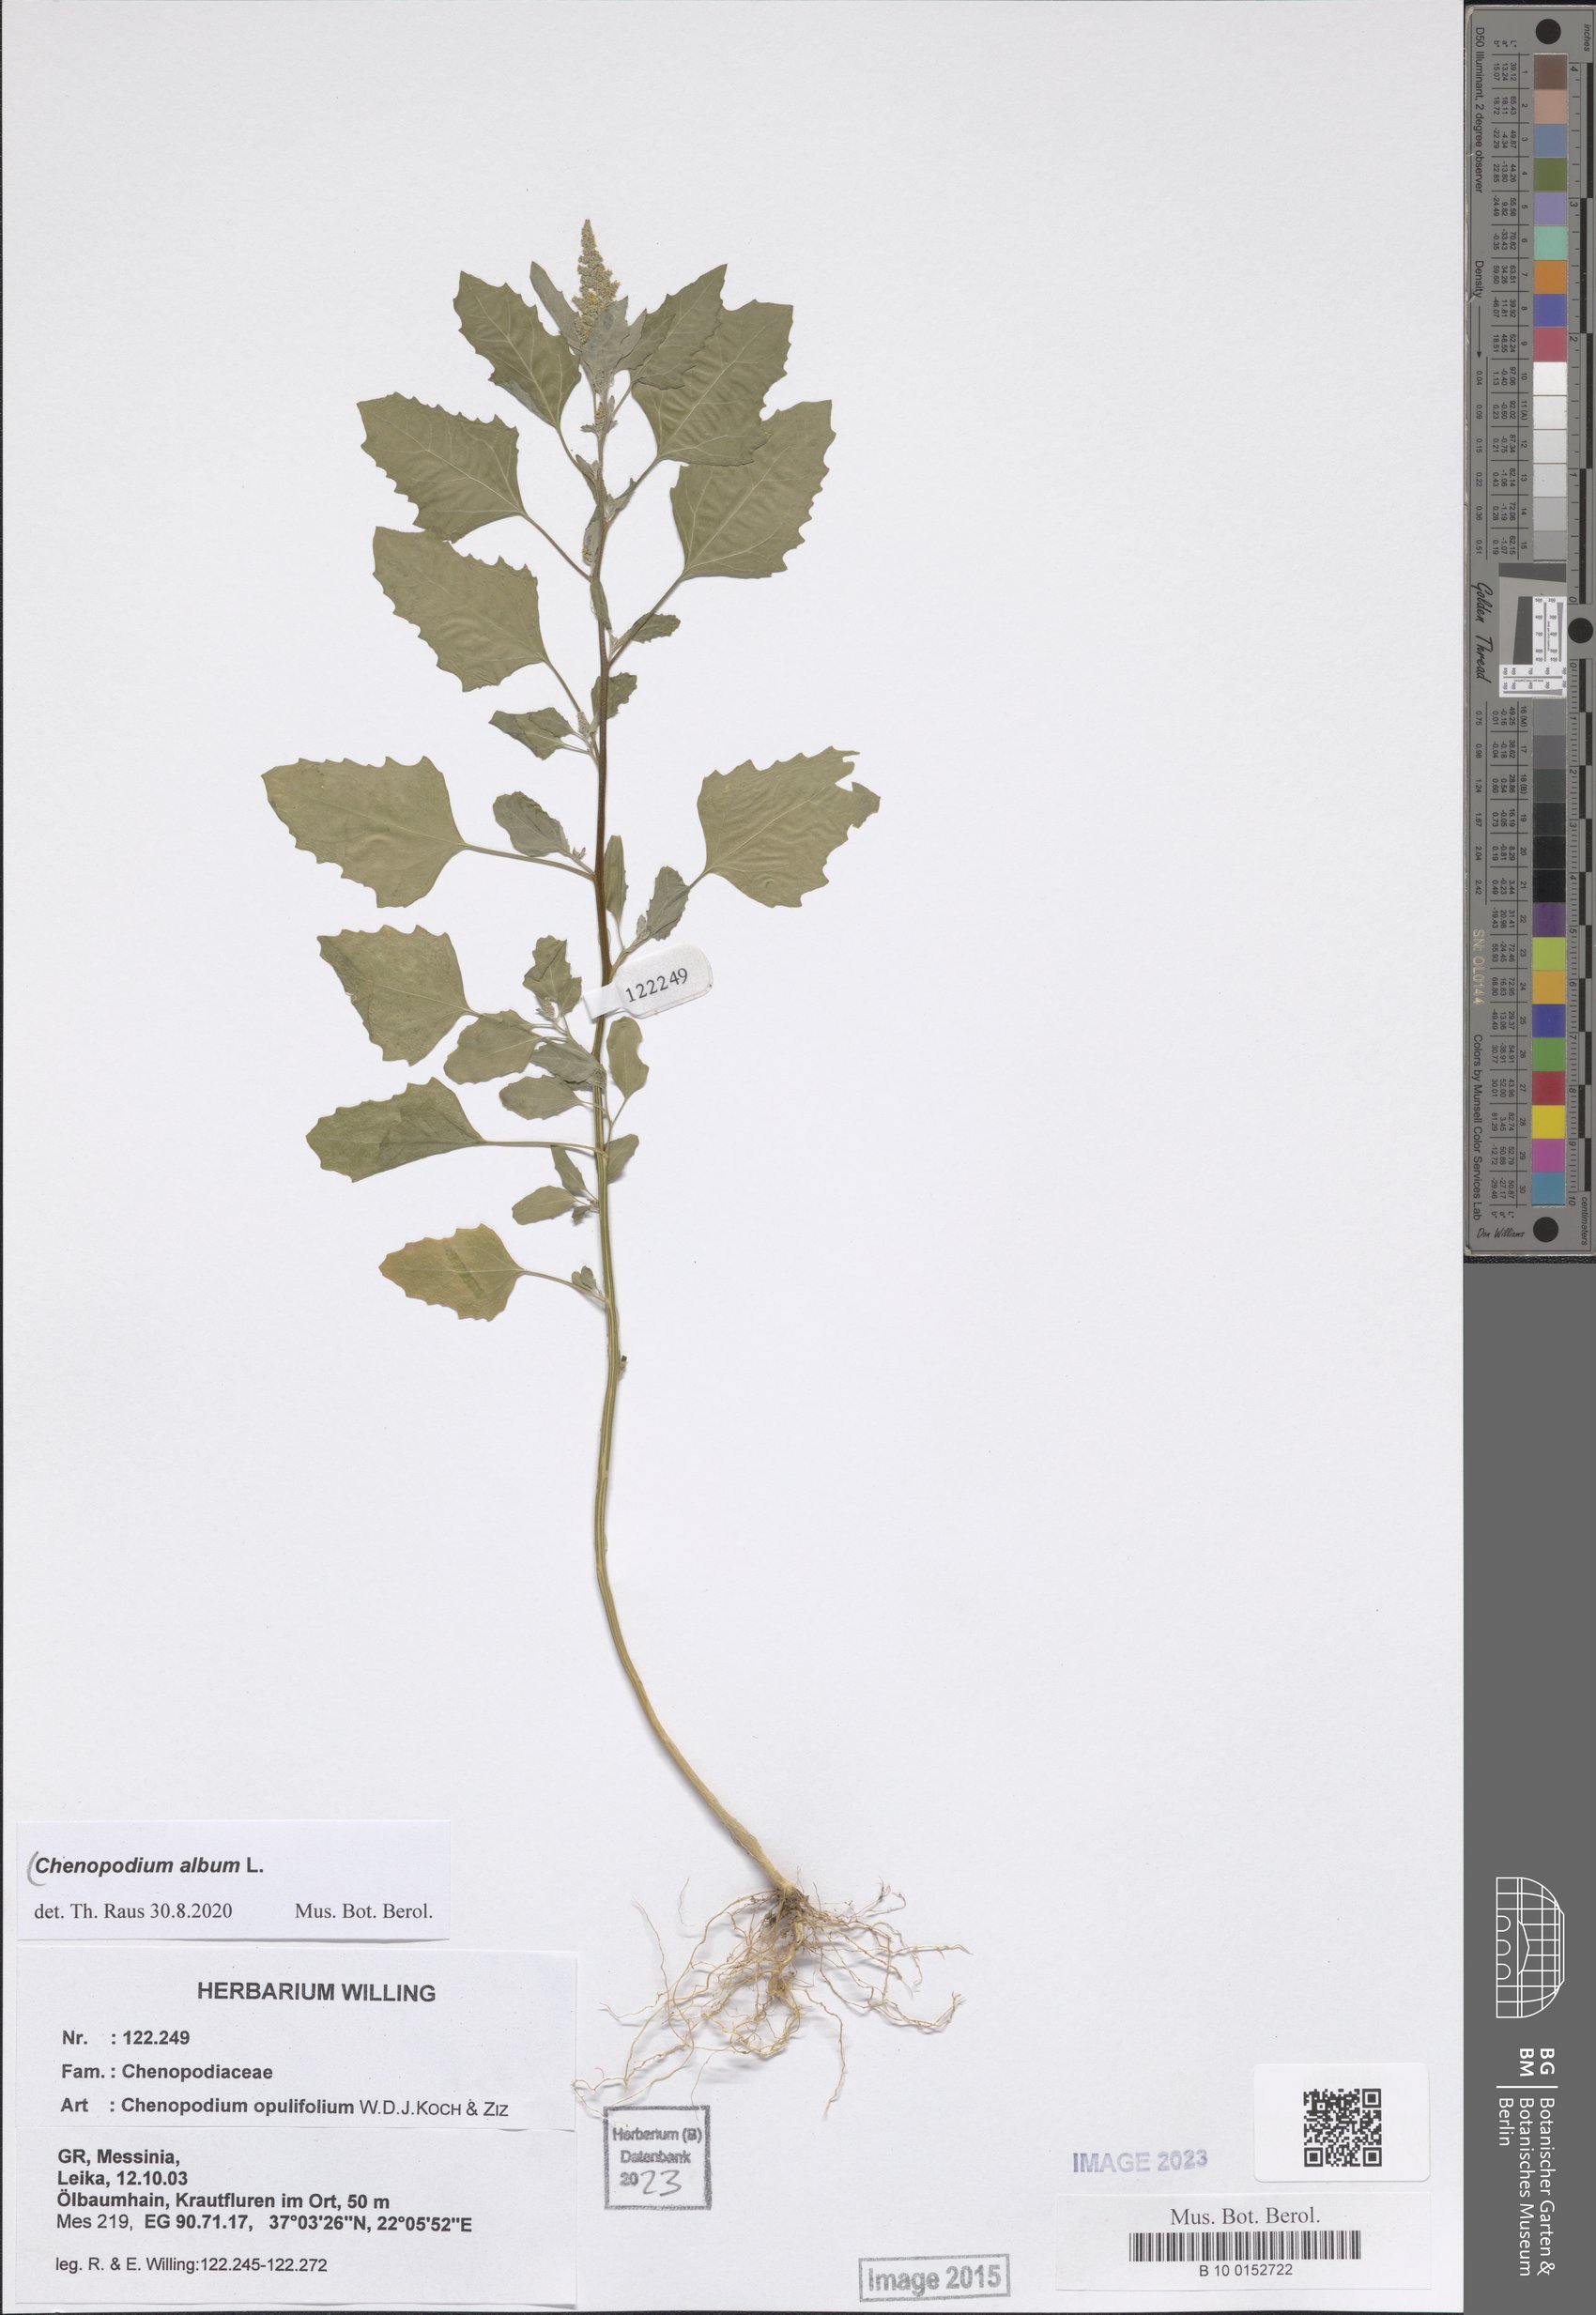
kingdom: Plantae
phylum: Tracheophyta
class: Magnoliopsida
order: Caryophyllales
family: Amaranthaceae
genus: Chenopodium
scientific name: Chenopodium album
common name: Fat-hen
